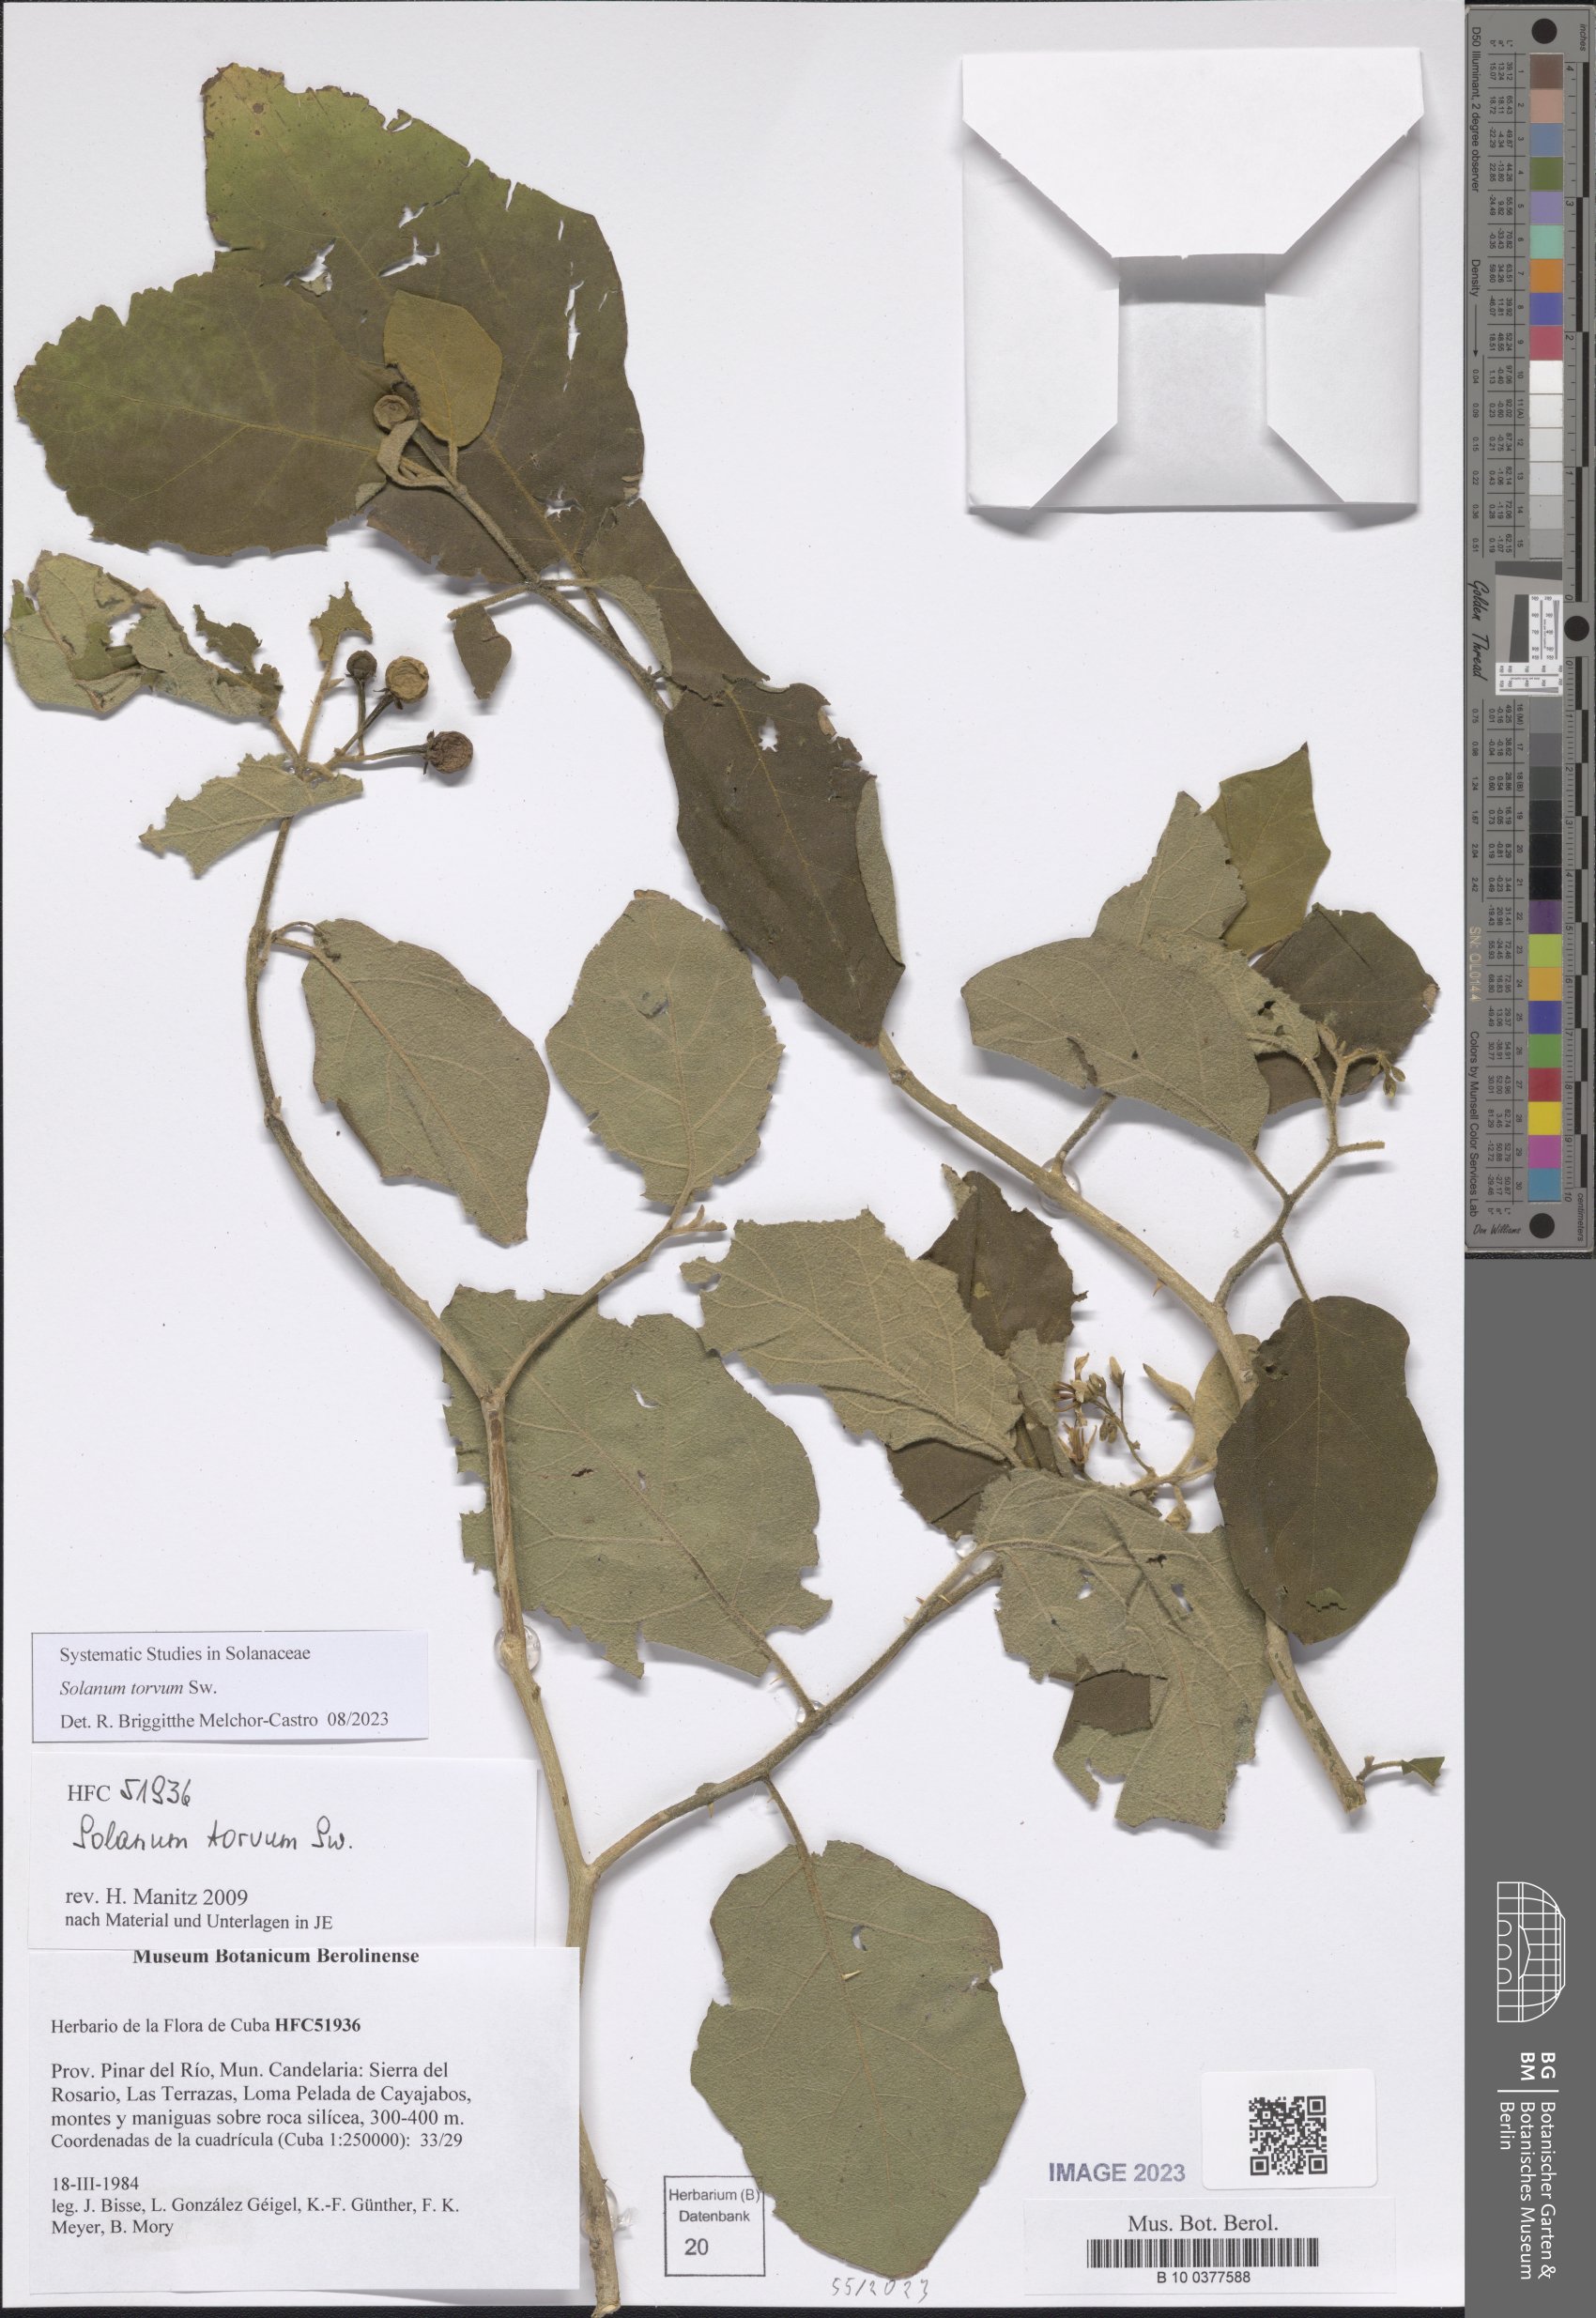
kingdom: Plantae
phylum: Tracheophyta
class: Magnoliopsida
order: Solanales
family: Solanaceae
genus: Solanum
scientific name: Solanum torvum
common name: Turkey berry
